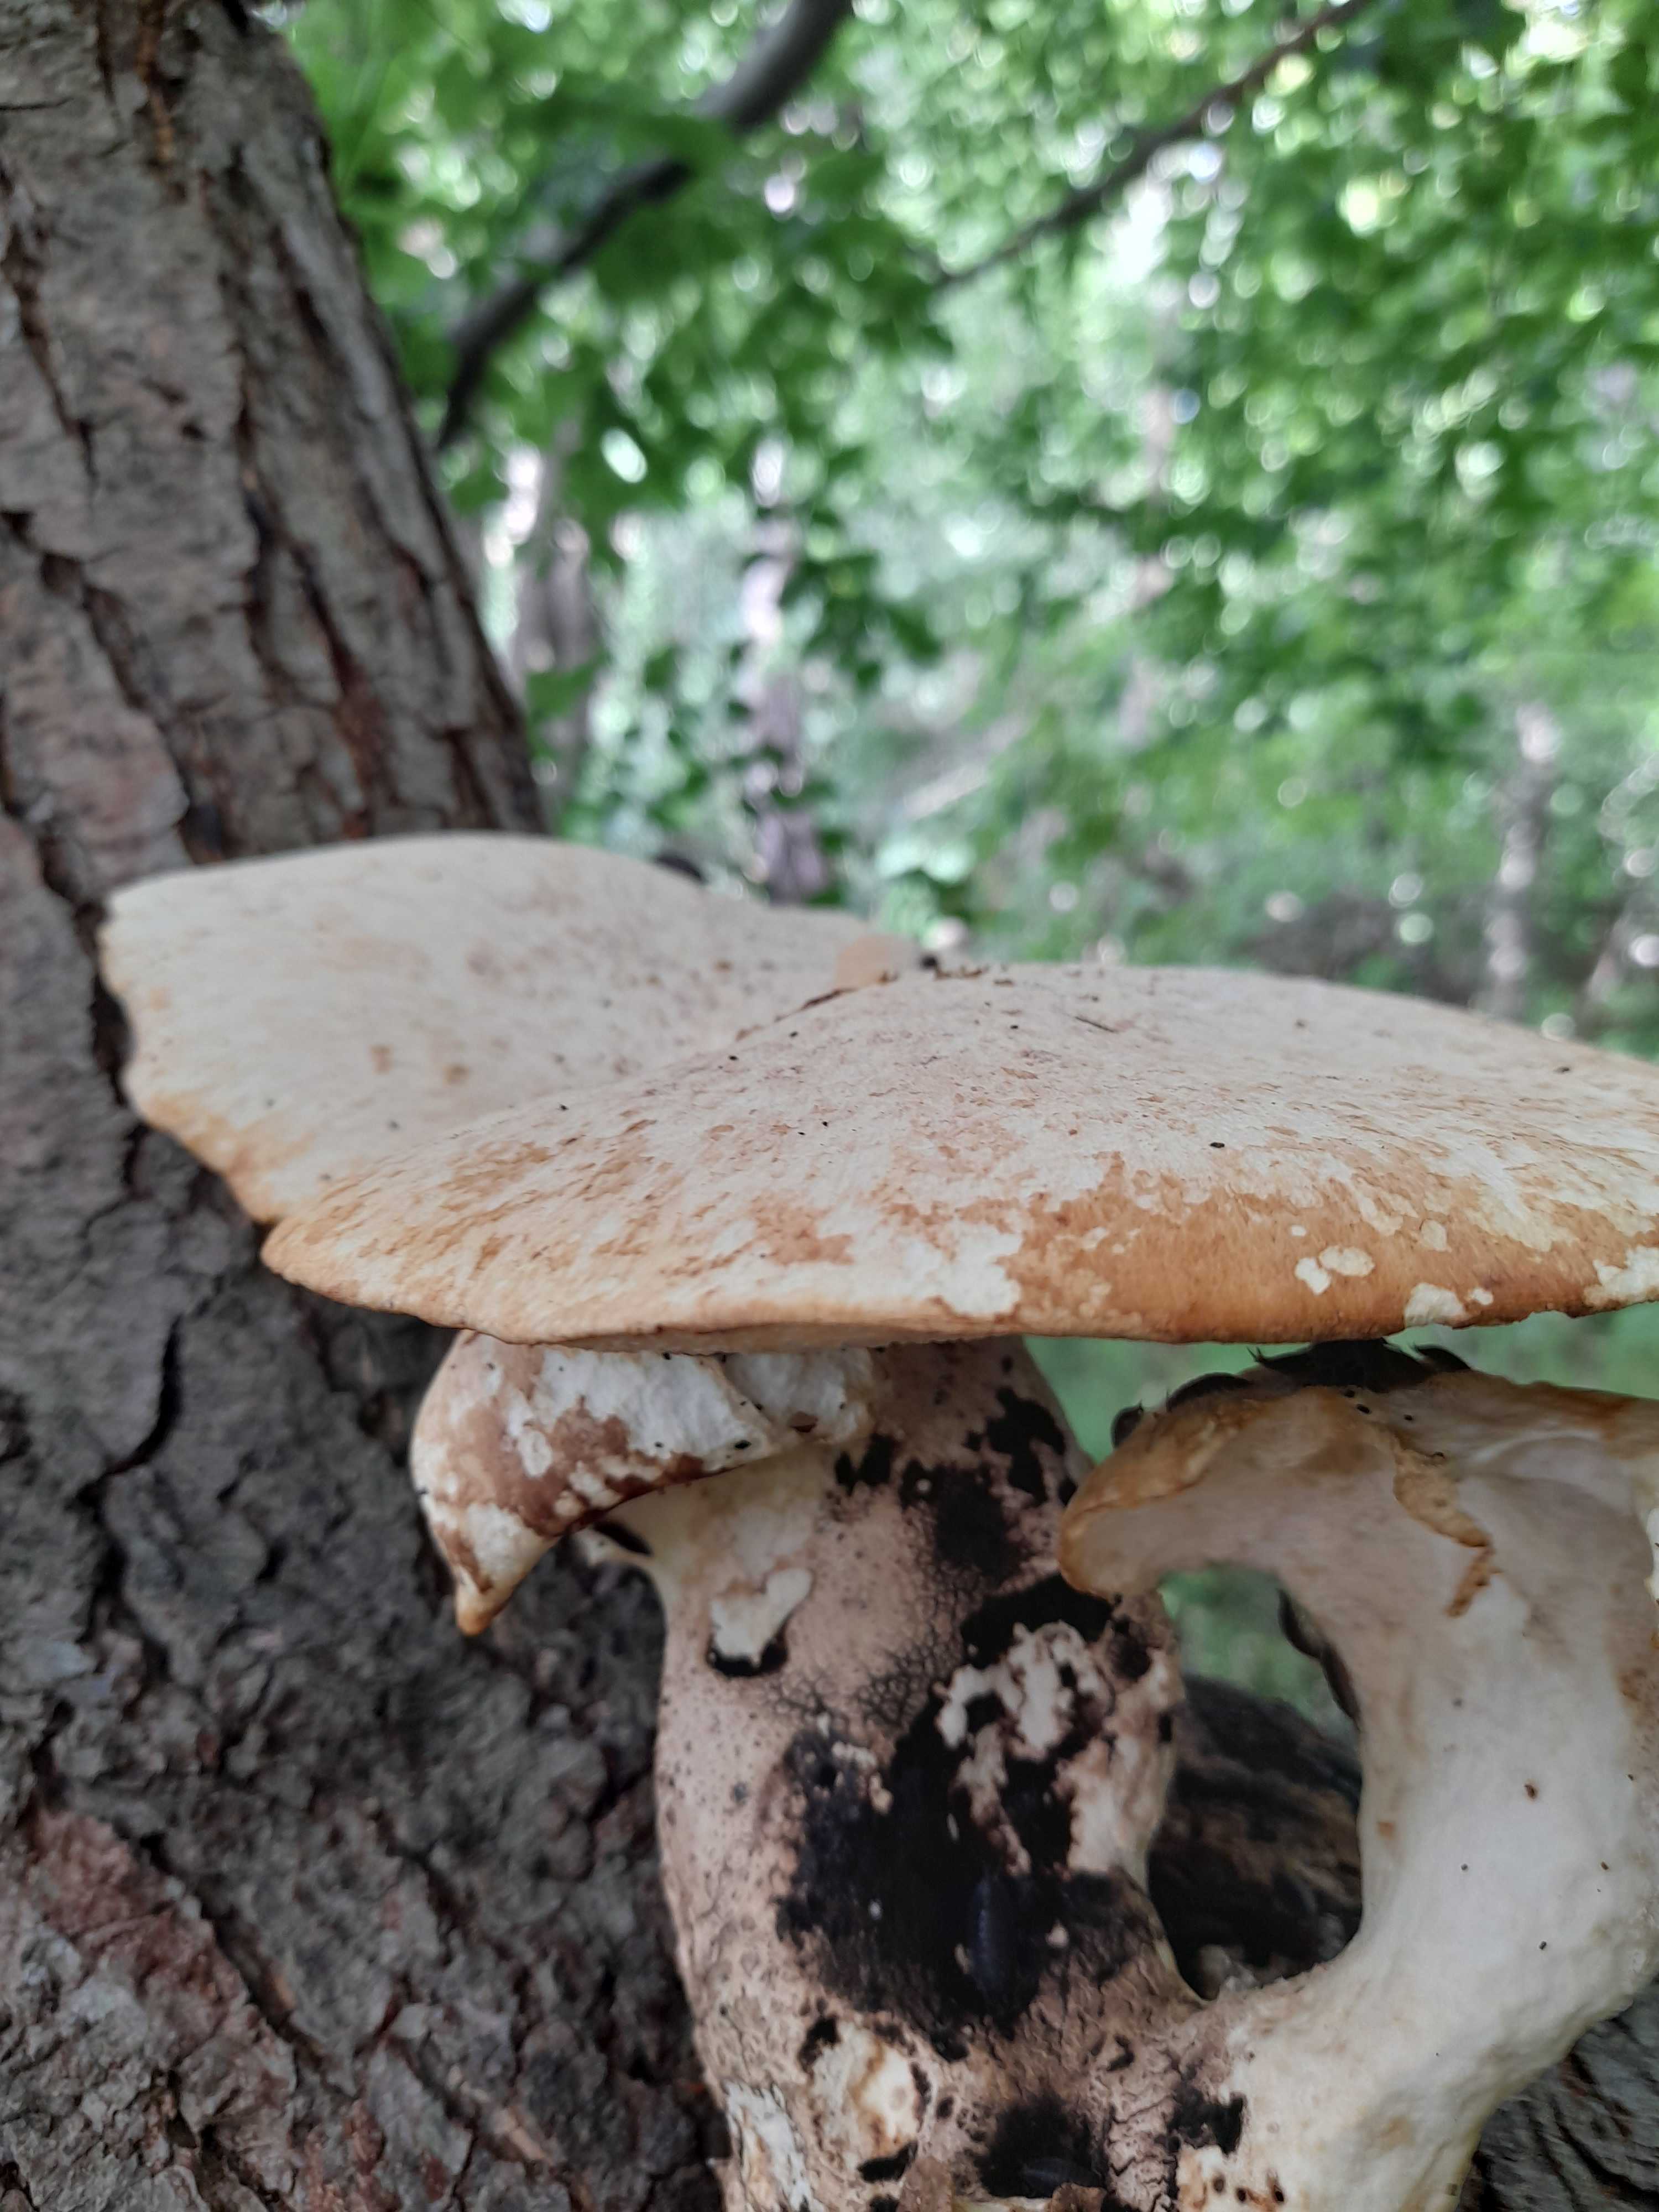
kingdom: Fungi
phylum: Basidiomycota
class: Agaricomycetes
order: Polyporales
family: Polyporaceae
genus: Cerioporus
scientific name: Cerioporus squamosus
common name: skællet stilkporesvamp
